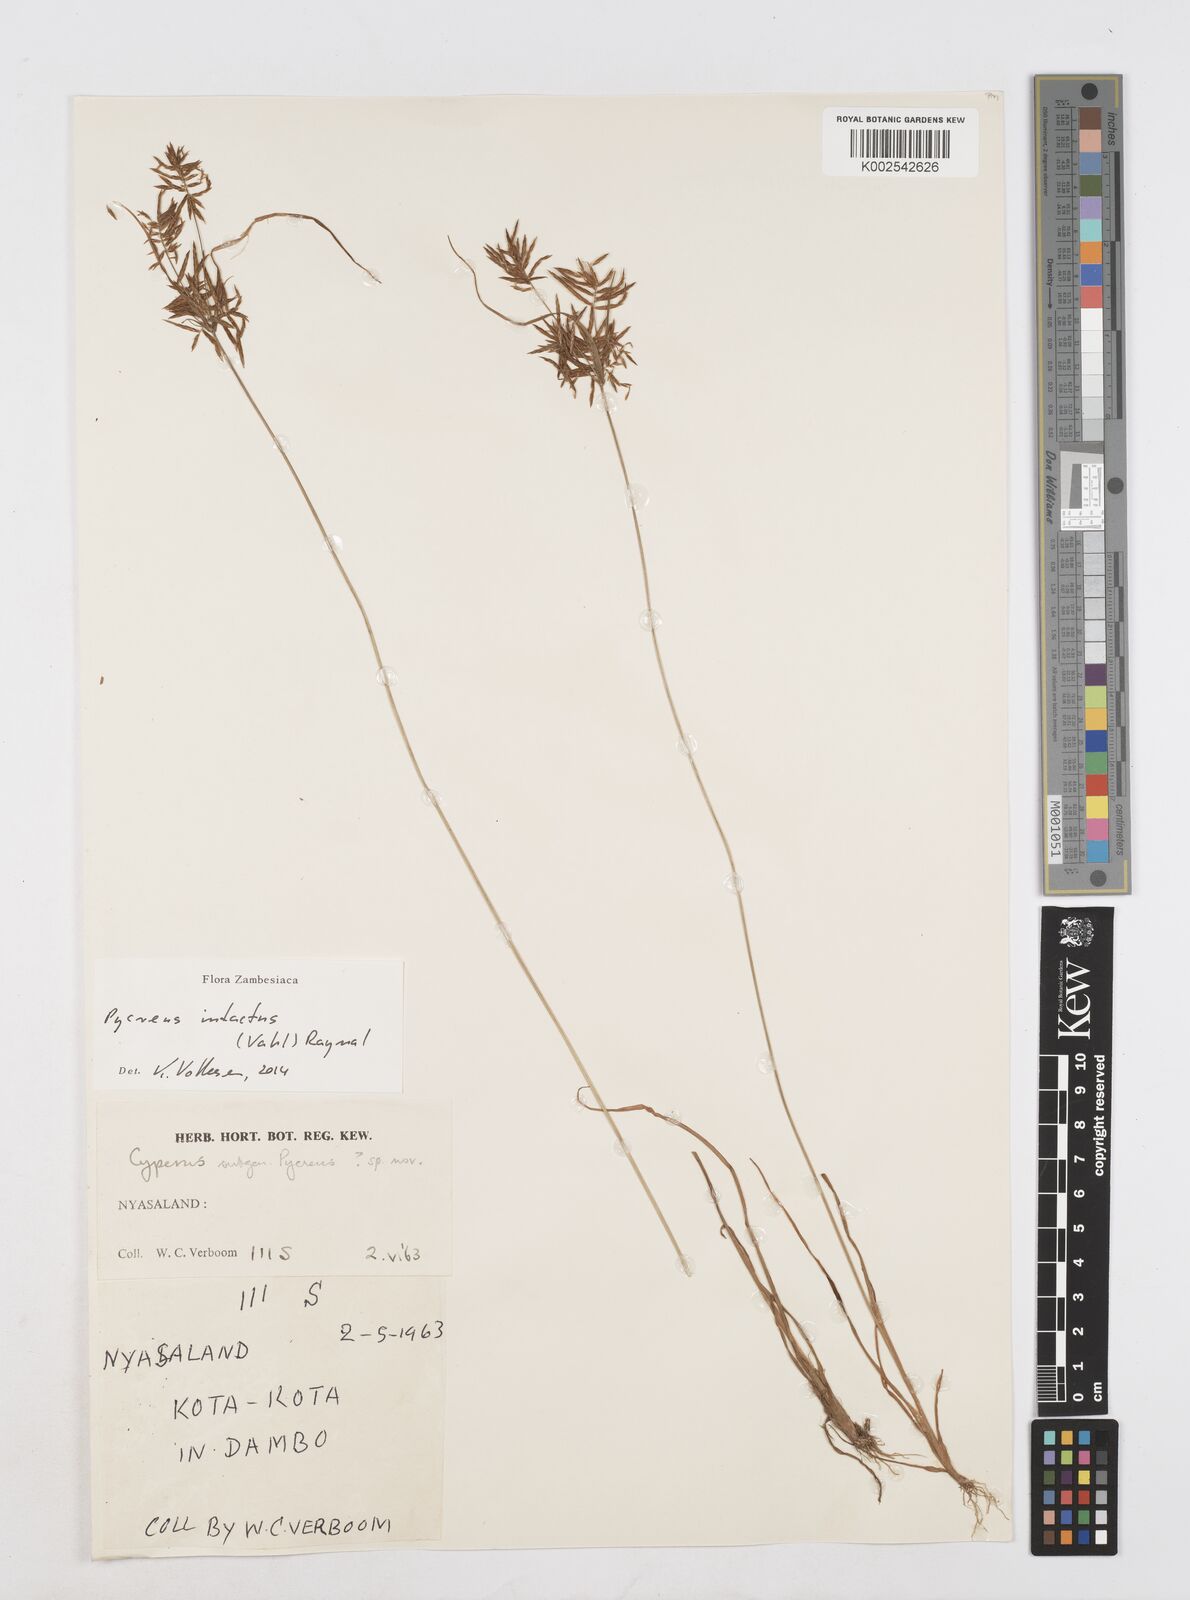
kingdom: Plantae
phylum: Tracheophyta
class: Liliopsida
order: Poales
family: Cyperaceae
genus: Cyperus
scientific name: Cyperus intactus
